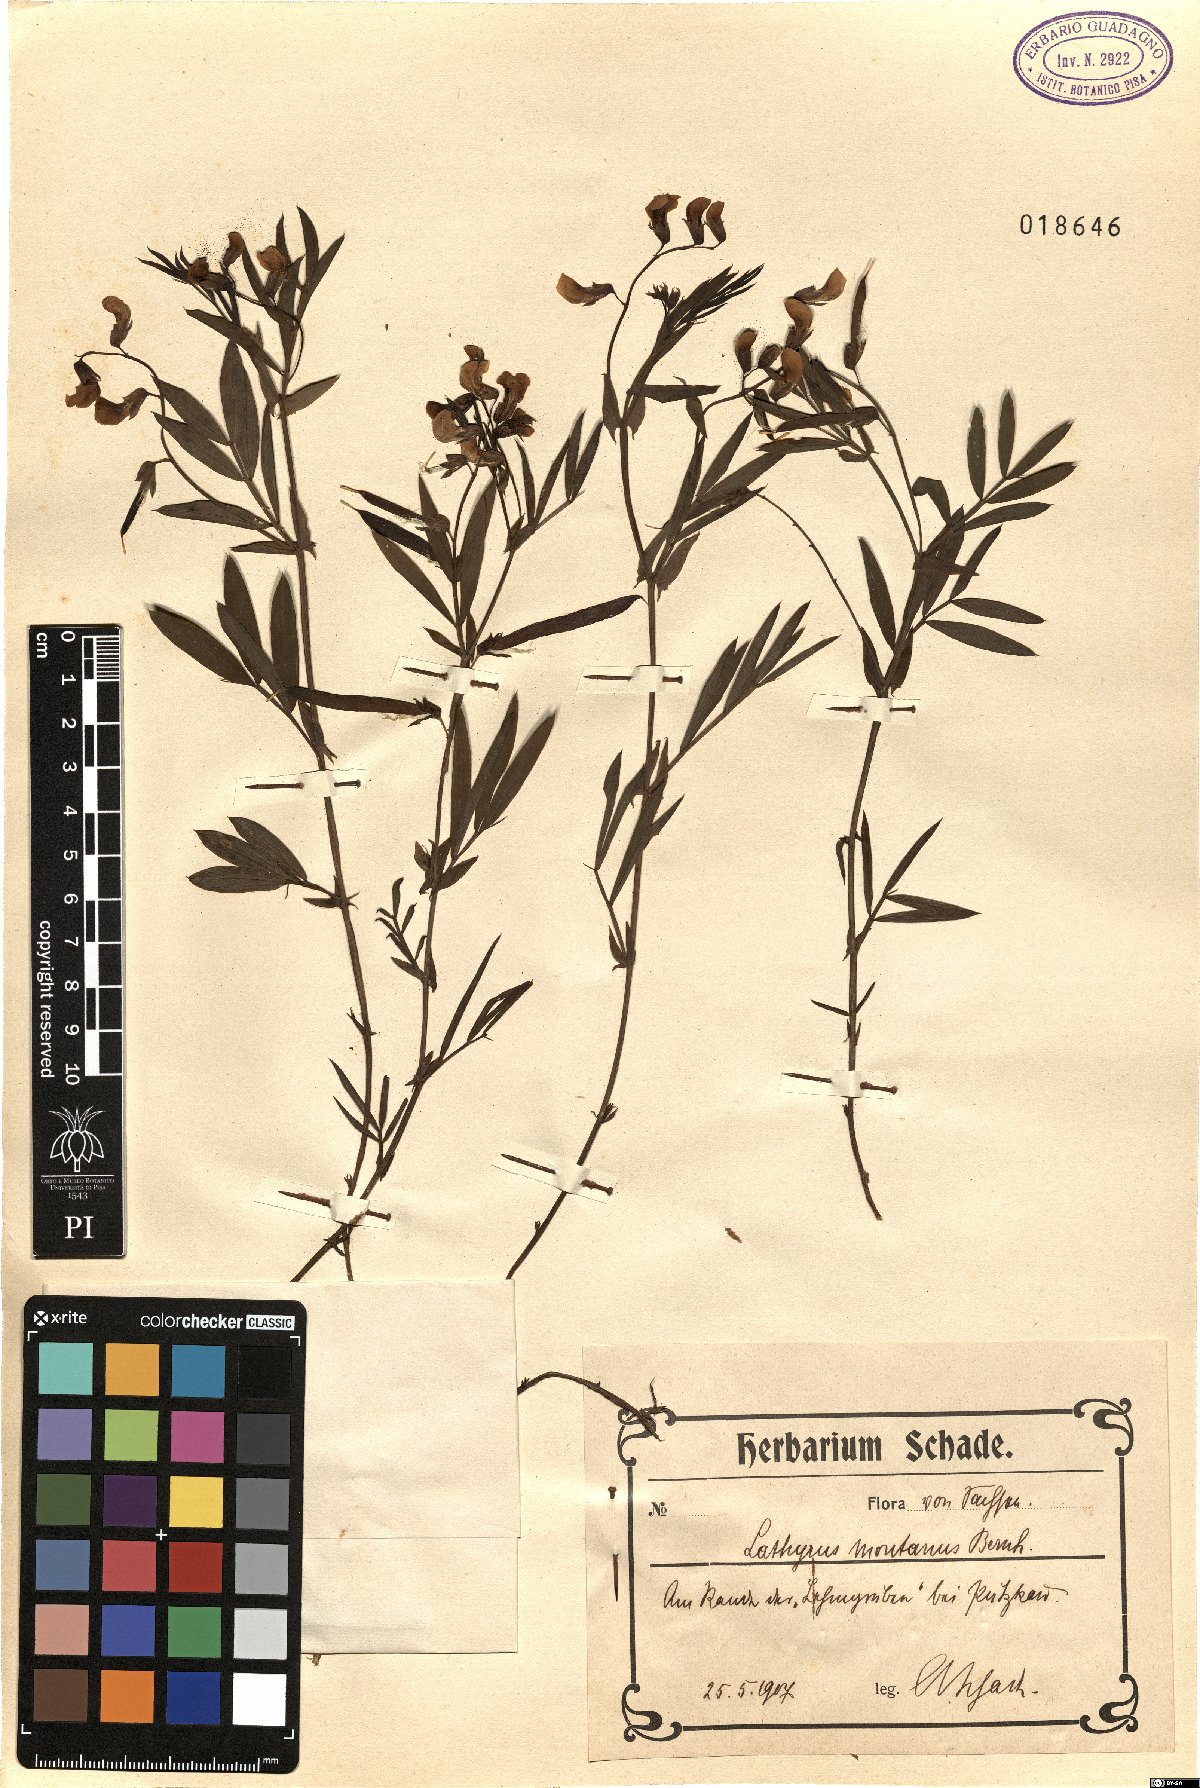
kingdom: Plantae
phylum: Tracheophyta
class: Magnoliopsida
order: Fabales
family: Fabaceae
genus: Lathyrus
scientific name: Lathyrus linifolius
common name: Bitter-vetch
